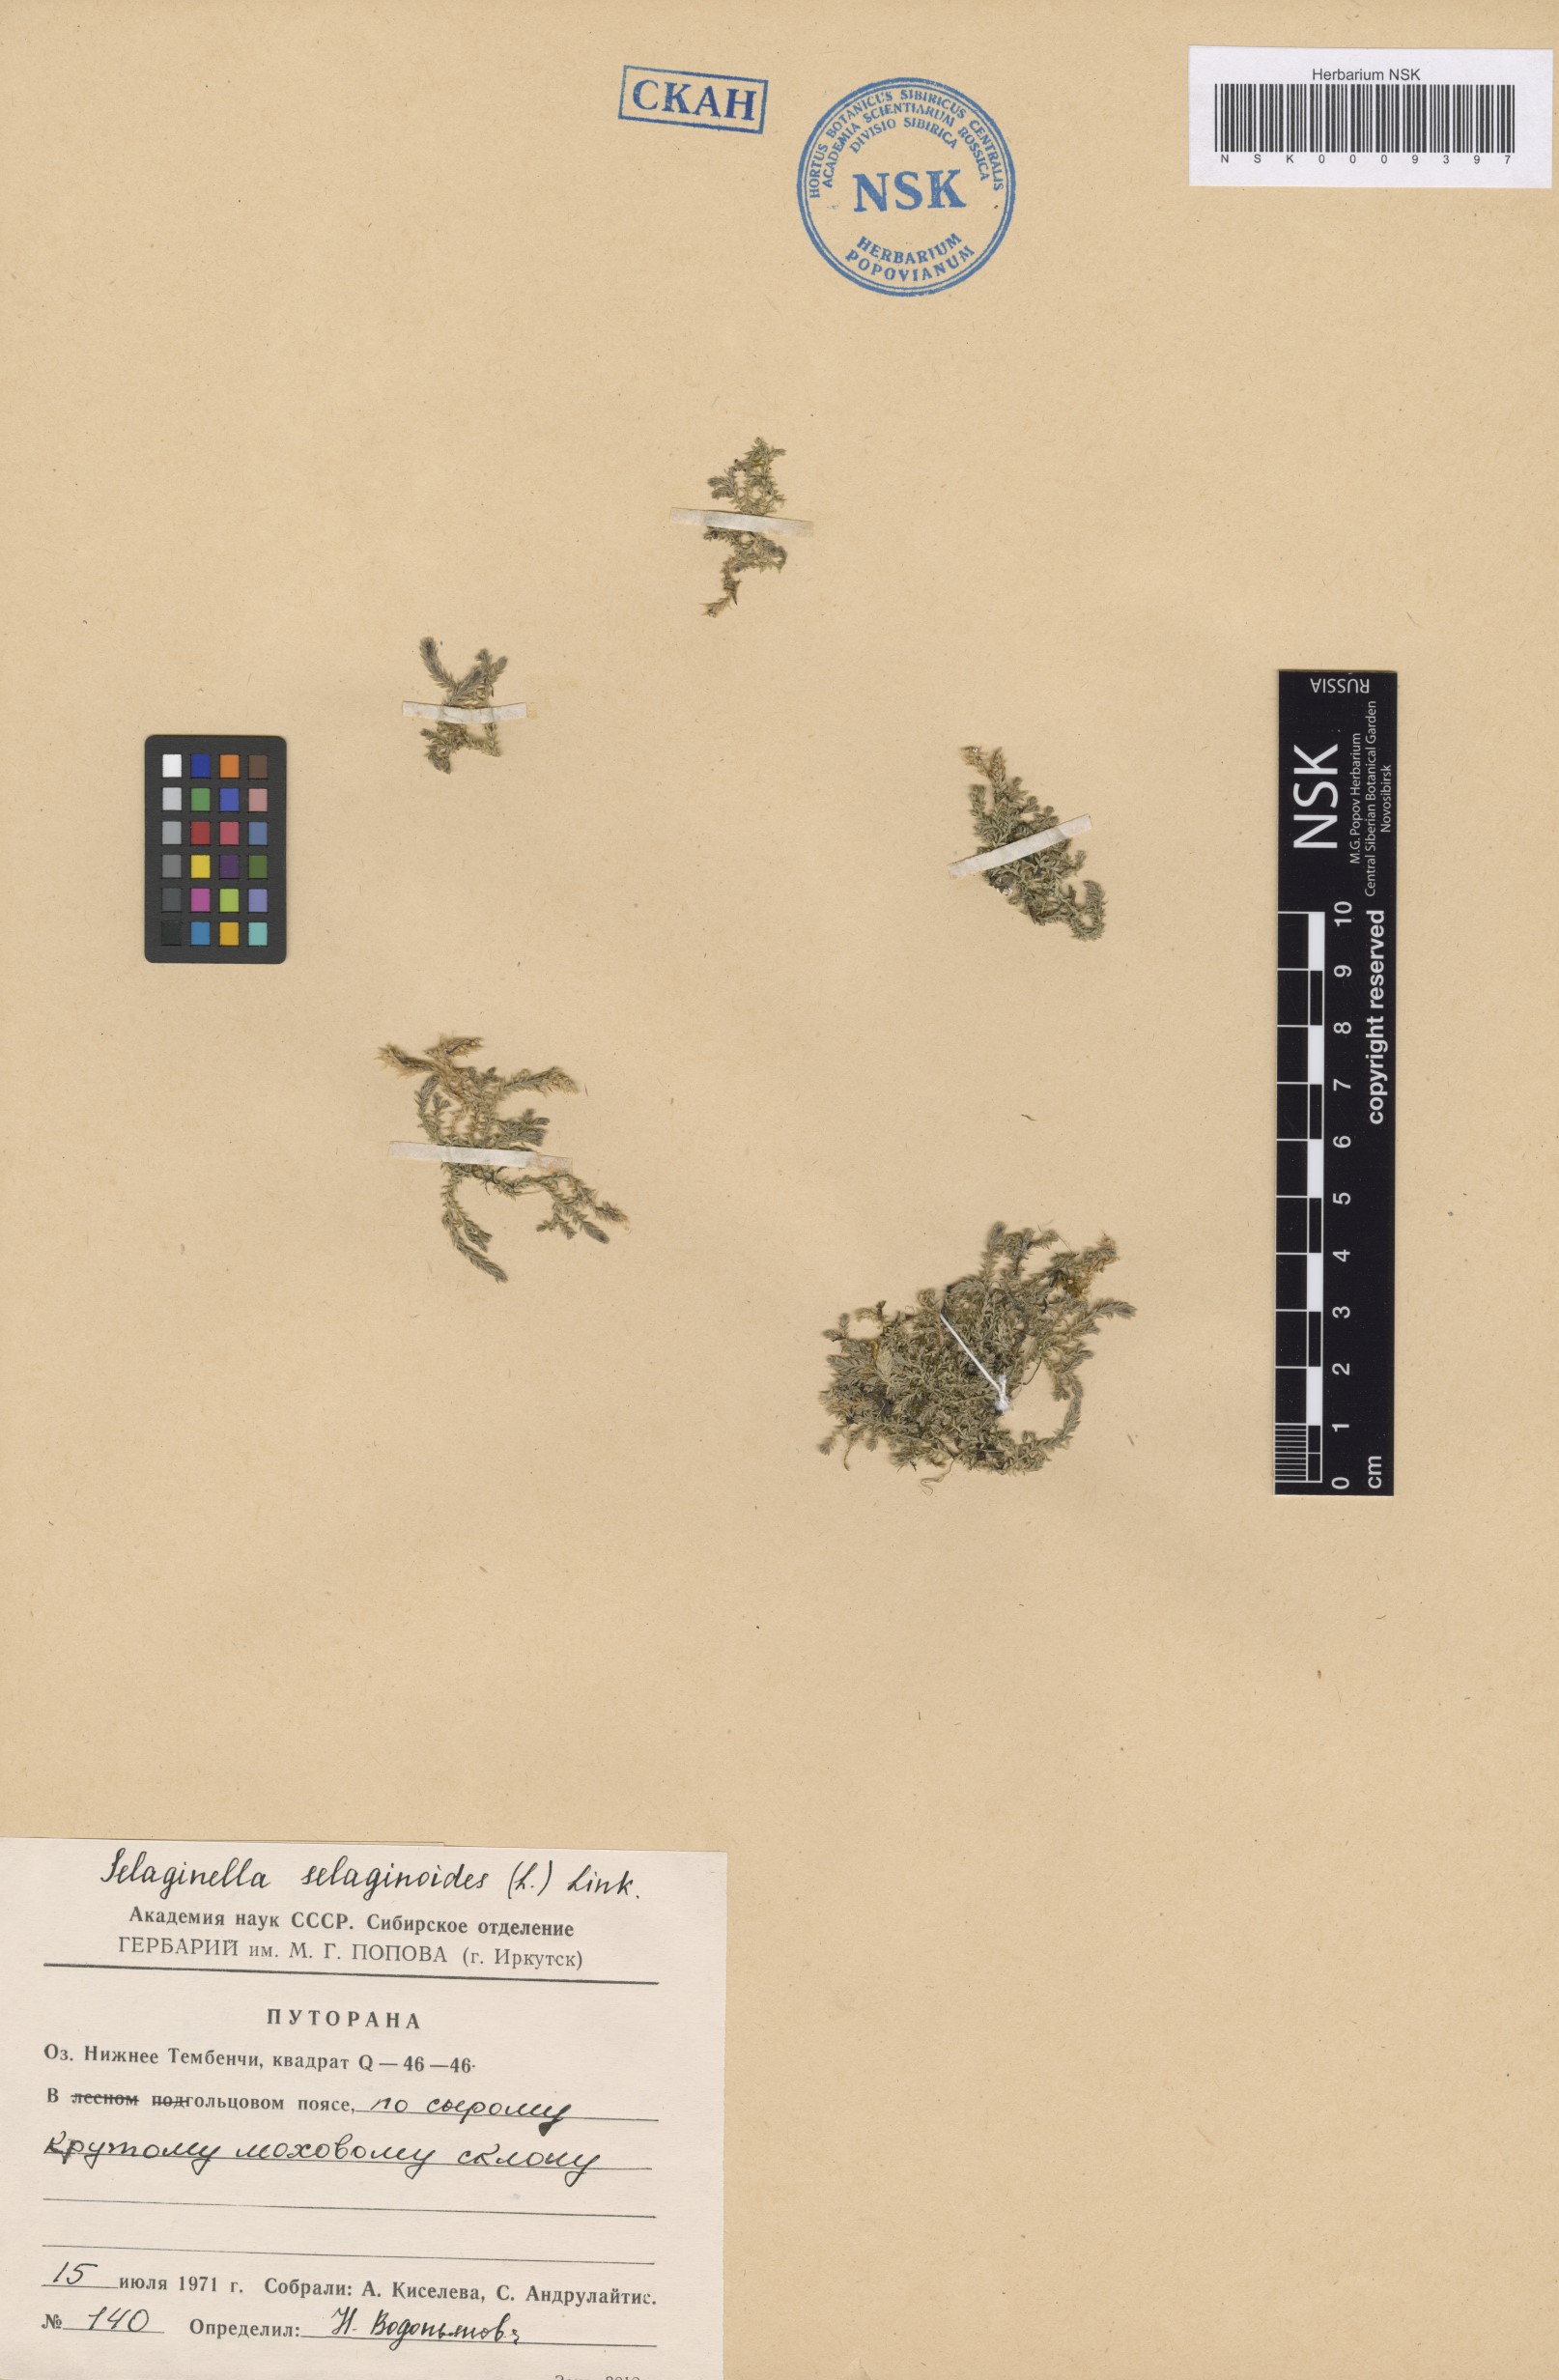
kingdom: Plantae
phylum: Tracheophyta
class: Lycopodiopsida
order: Selaginellales
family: Selaginellaceae
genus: Selaginella
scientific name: Selaginella selaginoides
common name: Prickly mountain-moss
